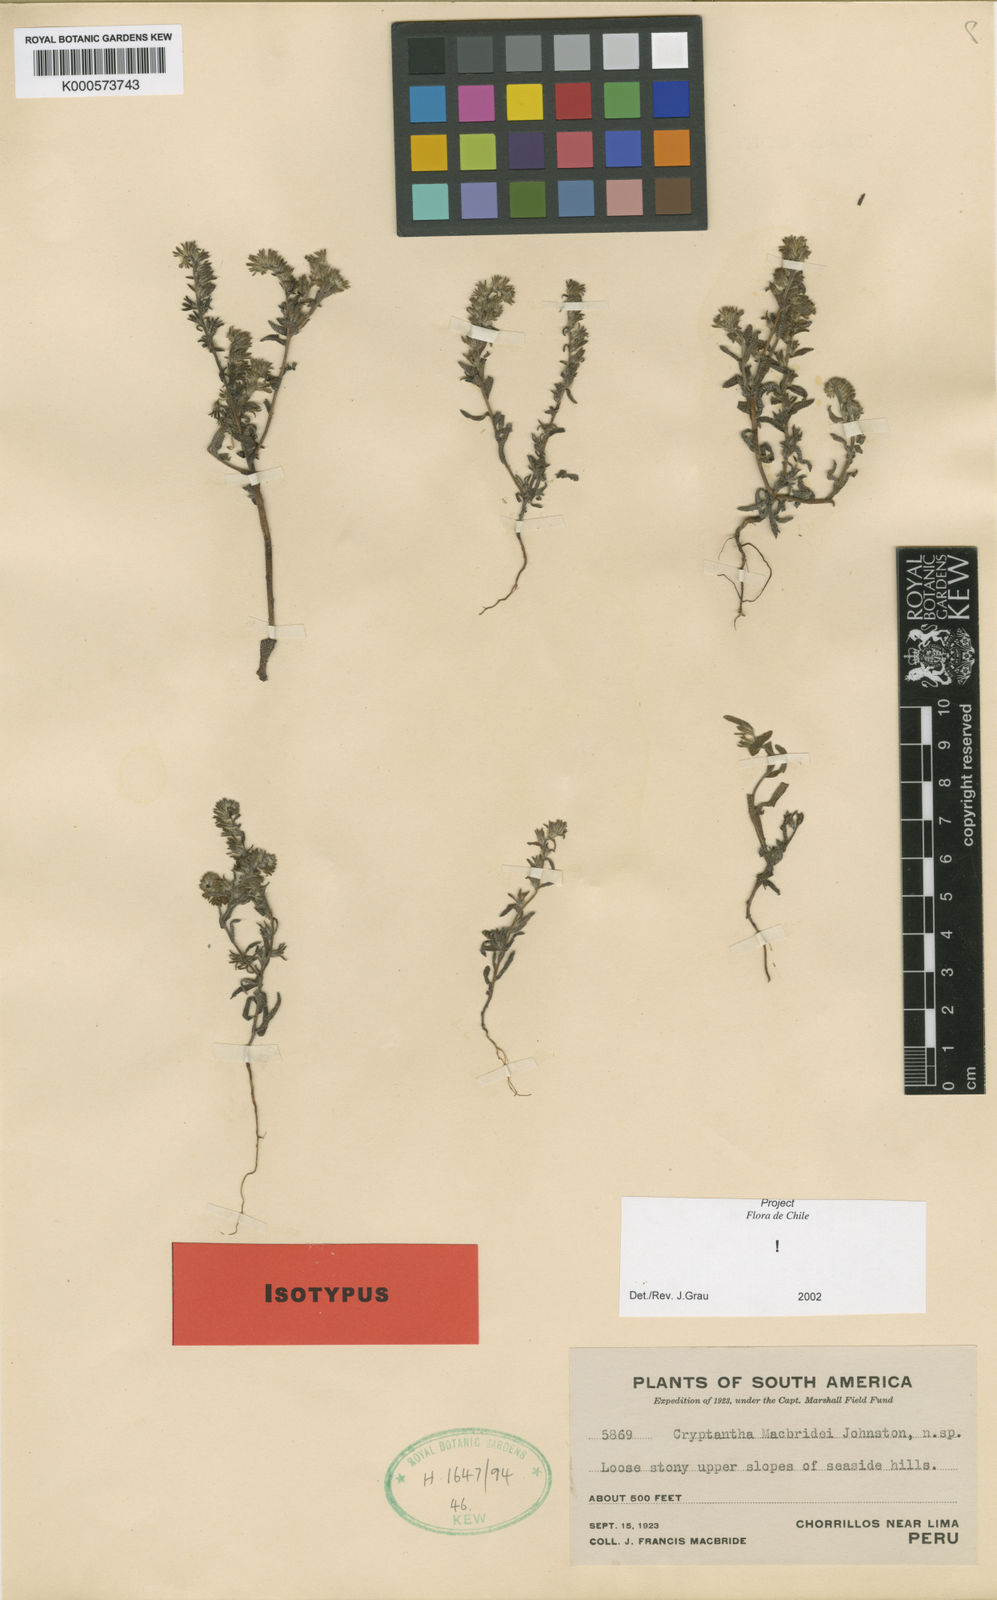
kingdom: Plantae
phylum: Tracheophyta
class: Magnoliopsida
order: Boraginales
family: Boraginaceae
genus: Cryptantha
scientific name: Cryptantha limensis
